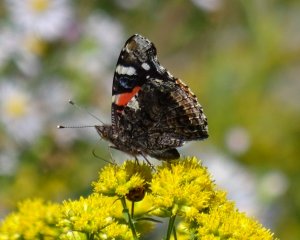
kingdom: Animalia
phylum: Arthropoda
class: Insecta
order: Lepidoptera
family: Nymphalidae
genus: Vanessa
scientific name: Vanessa atalanta
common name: Red Admiral
